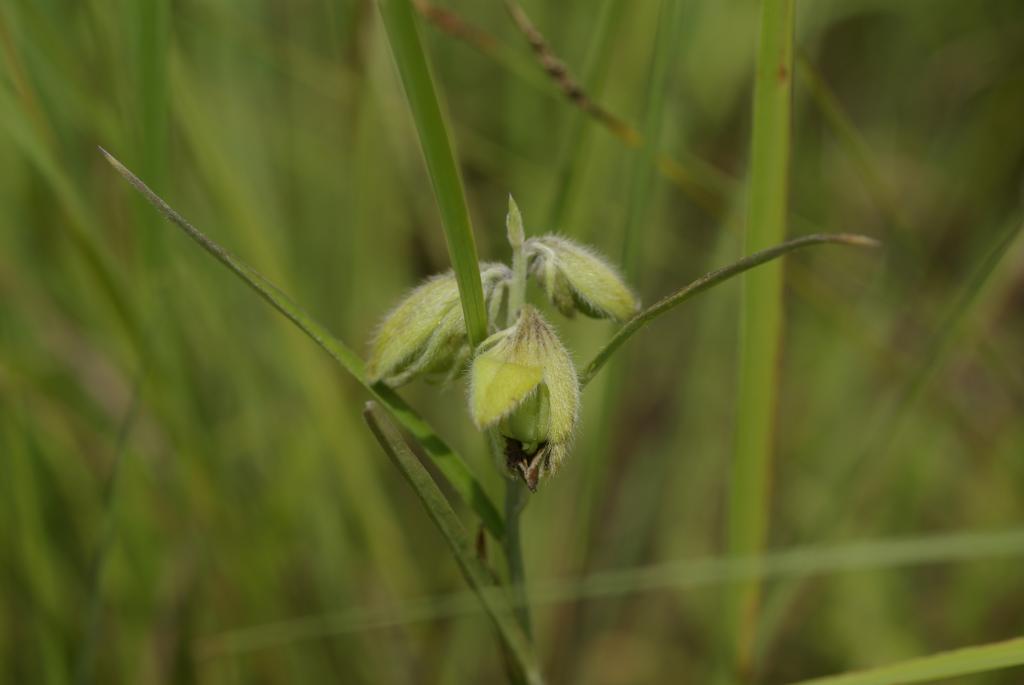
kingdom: Plantae
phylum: Tracheophyta
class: Magnoliopsida
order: Fabales
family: Fabaceae
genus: Crotalaria
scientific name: Crotalaria sessiliflora
